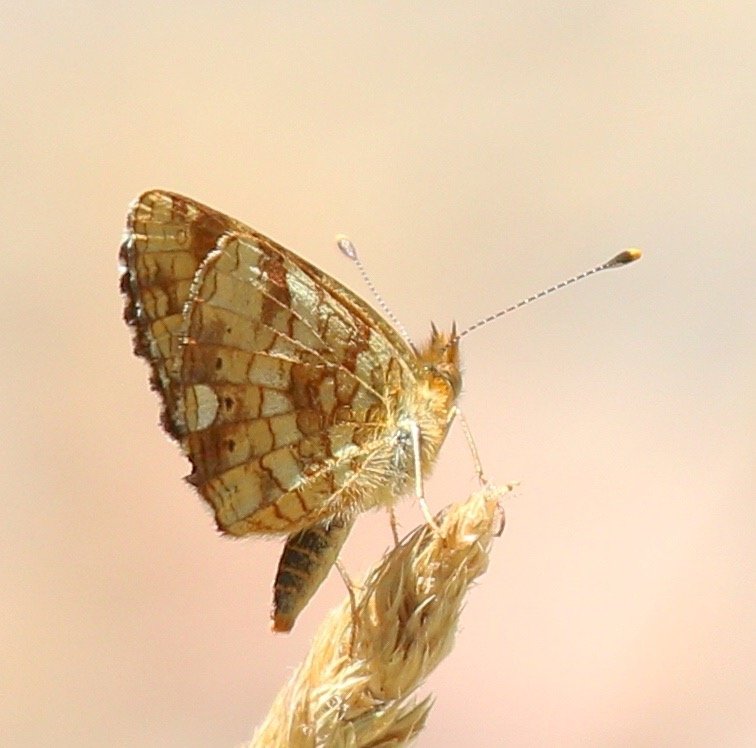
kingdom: Animalia
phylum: Arthropoda
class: Insecta
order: Lepidoptera
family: Nymphalidae
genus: Eresia
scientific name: Eresia aveyrona
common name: Mylitta Crescent
